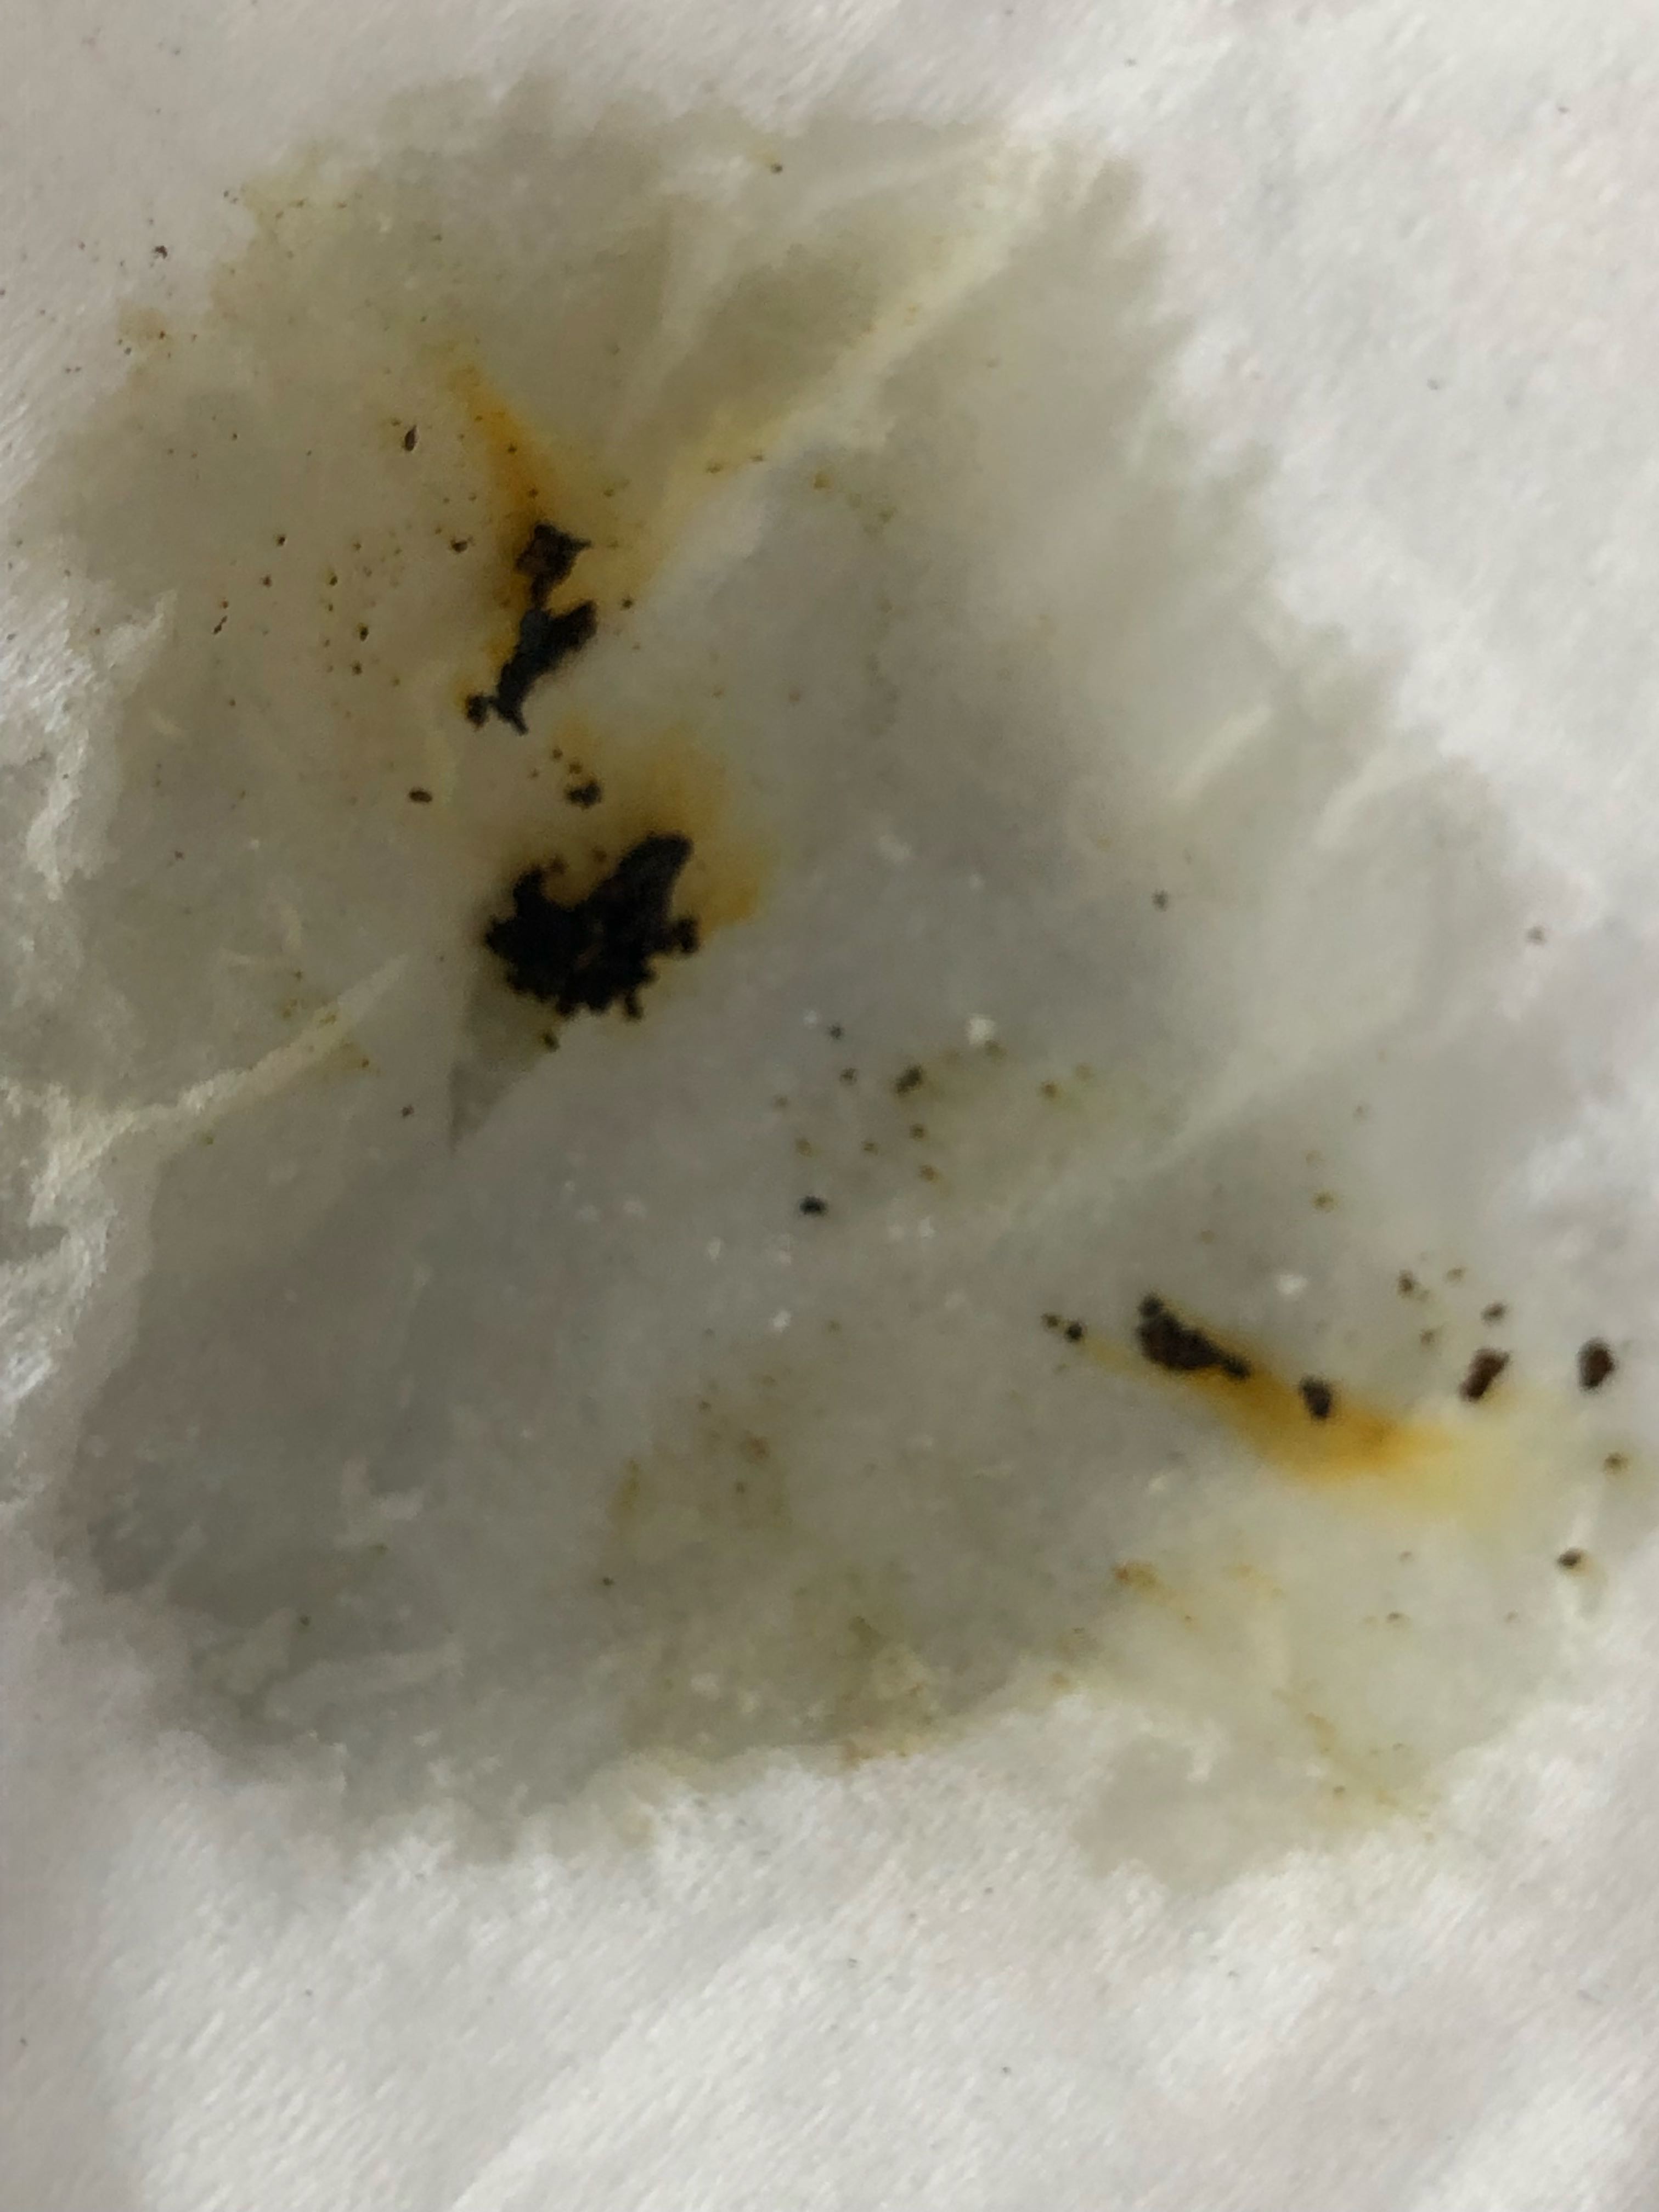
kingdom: Fungi
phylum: Ascomycota
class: Sordariomycetes
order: Xylariales
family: Hypoxylaceae
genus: Hypoxylon
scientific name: Hypoxylon petriniae
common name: nedsænket kulbær
